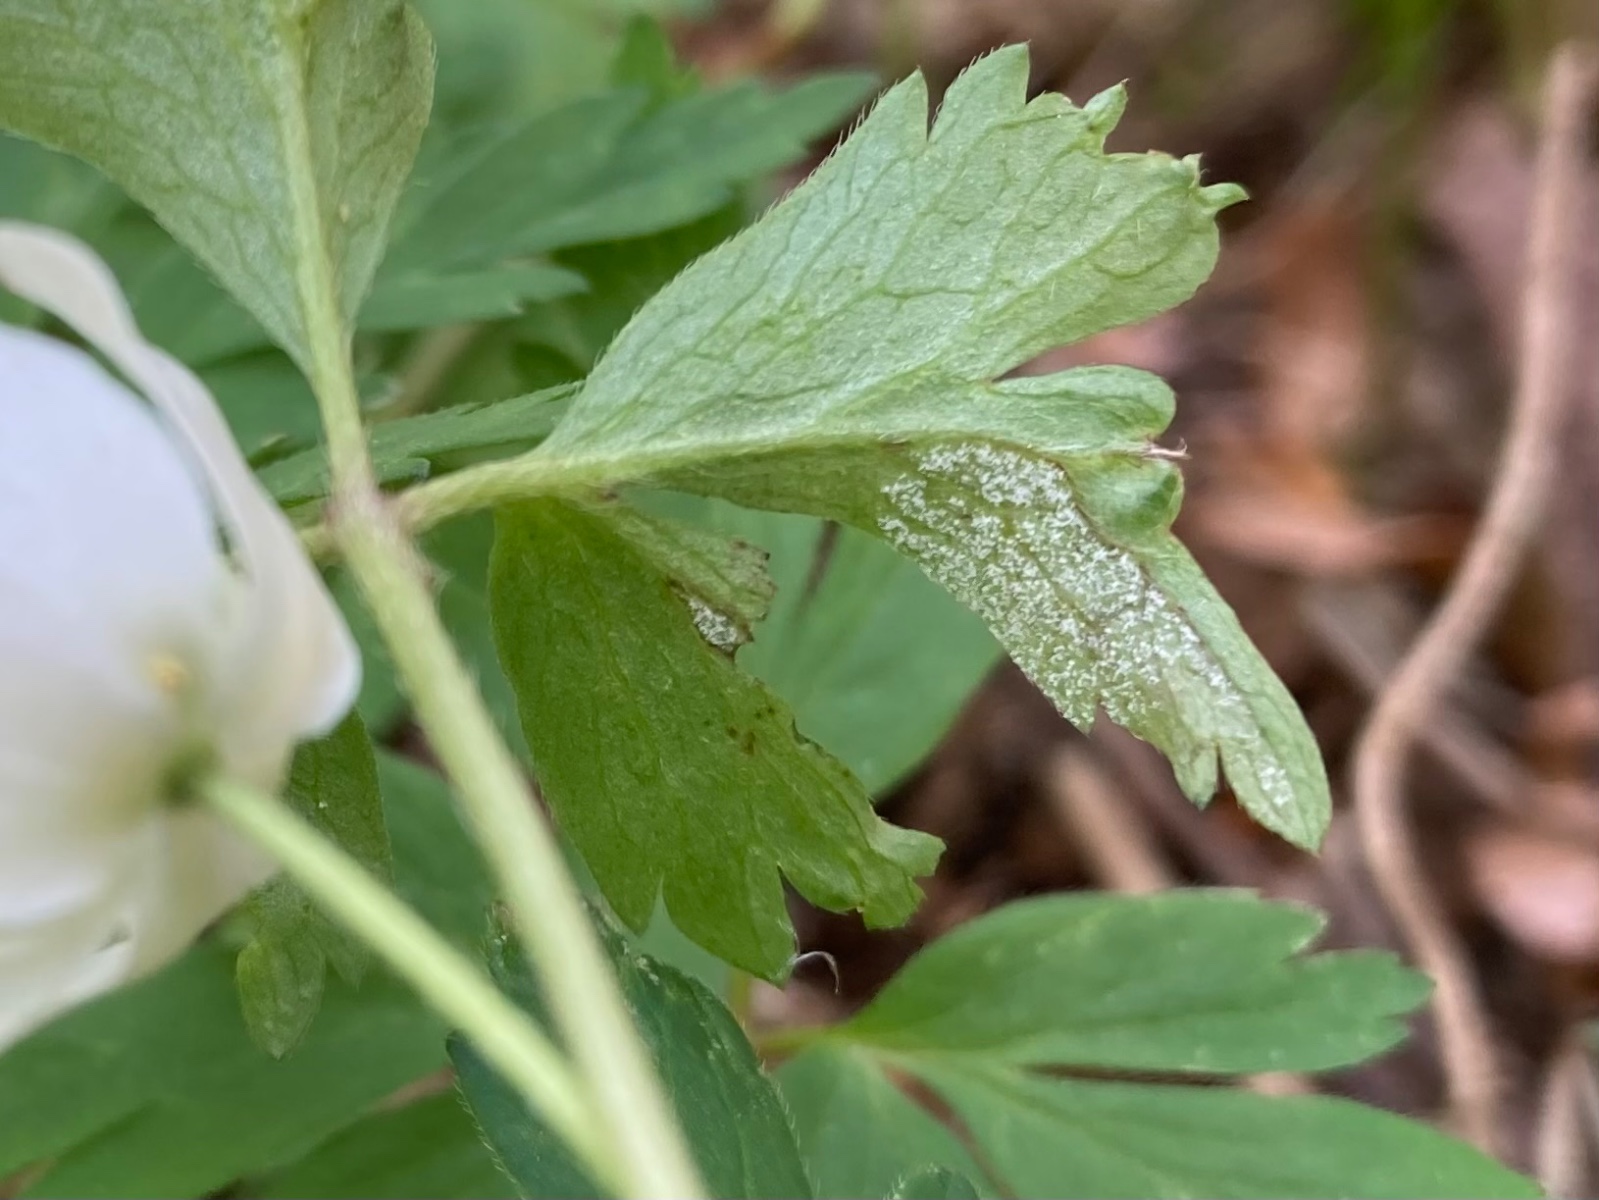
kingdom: Chromista
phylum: Oomycota
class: Peronosporea
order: Peronosporales
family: Peronosporaceae
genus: Plasmoverna
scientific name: Plasmoverna pygmaea
